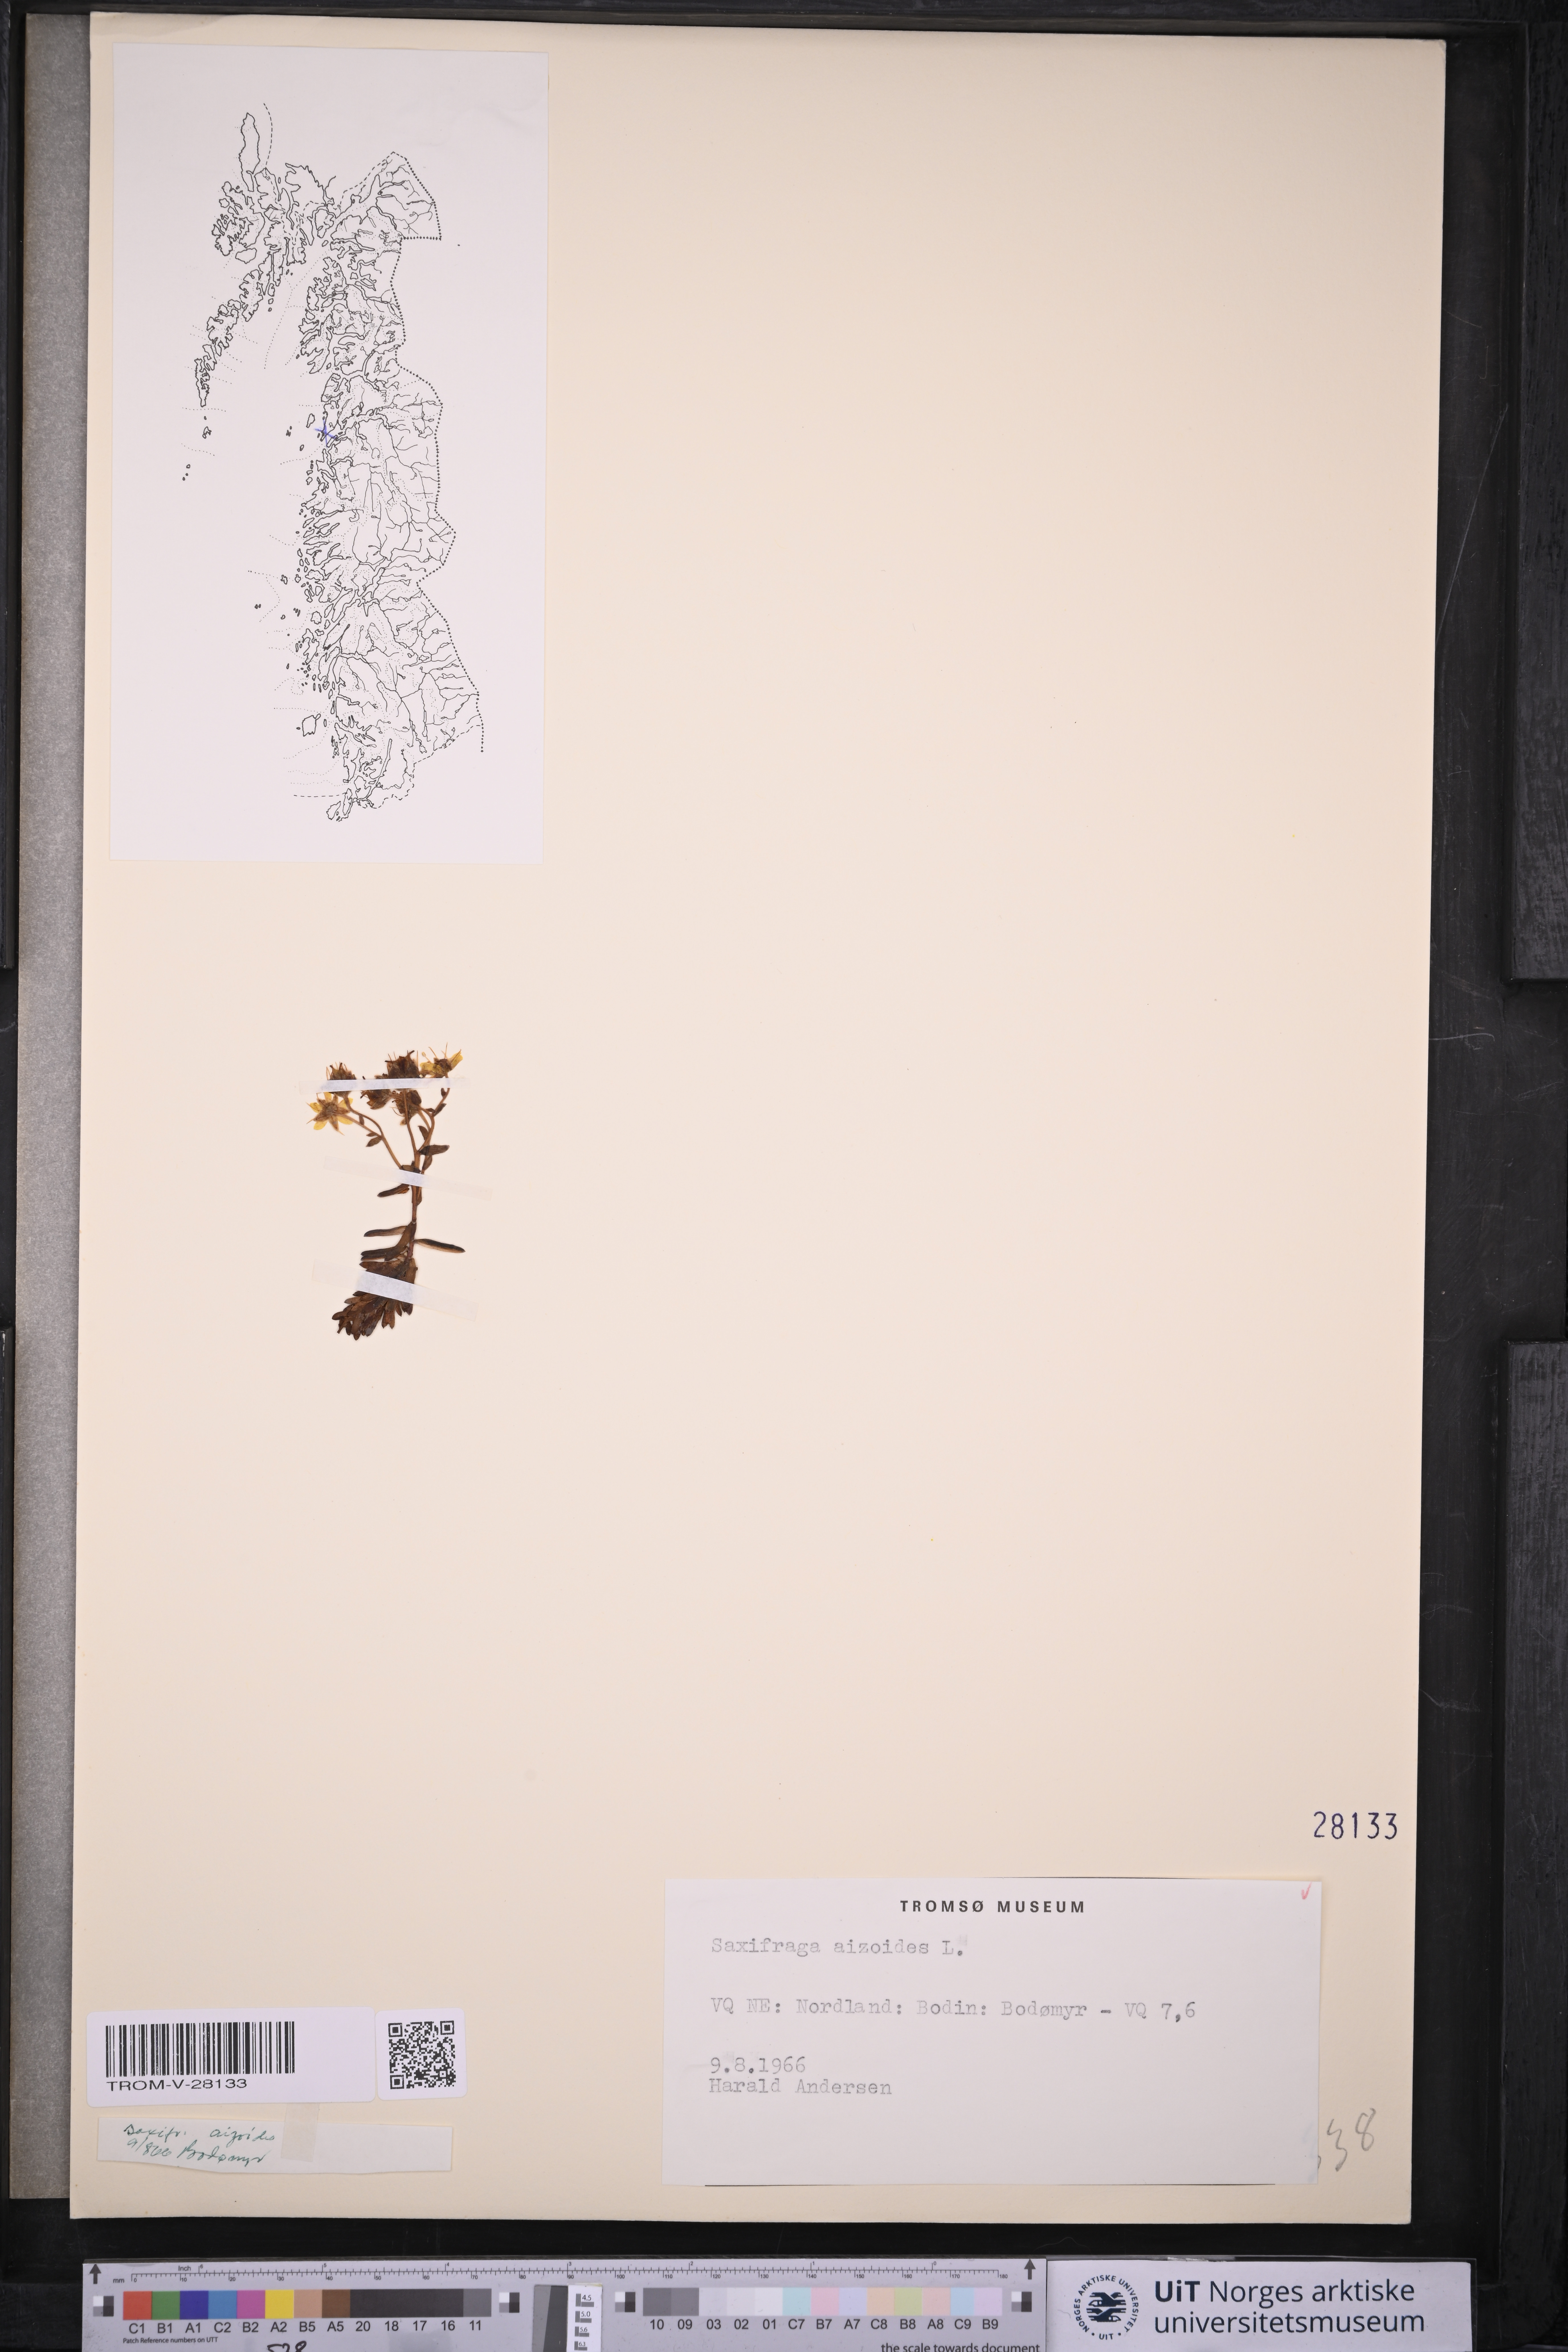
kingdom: Plantae
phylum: Tracheophyta
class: Magnoliopsida
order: Saxifragales
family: Saxifragaceae
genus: Saxifraga
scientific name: Saxifraga aizoides
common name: Yellow mountain saxifrage
